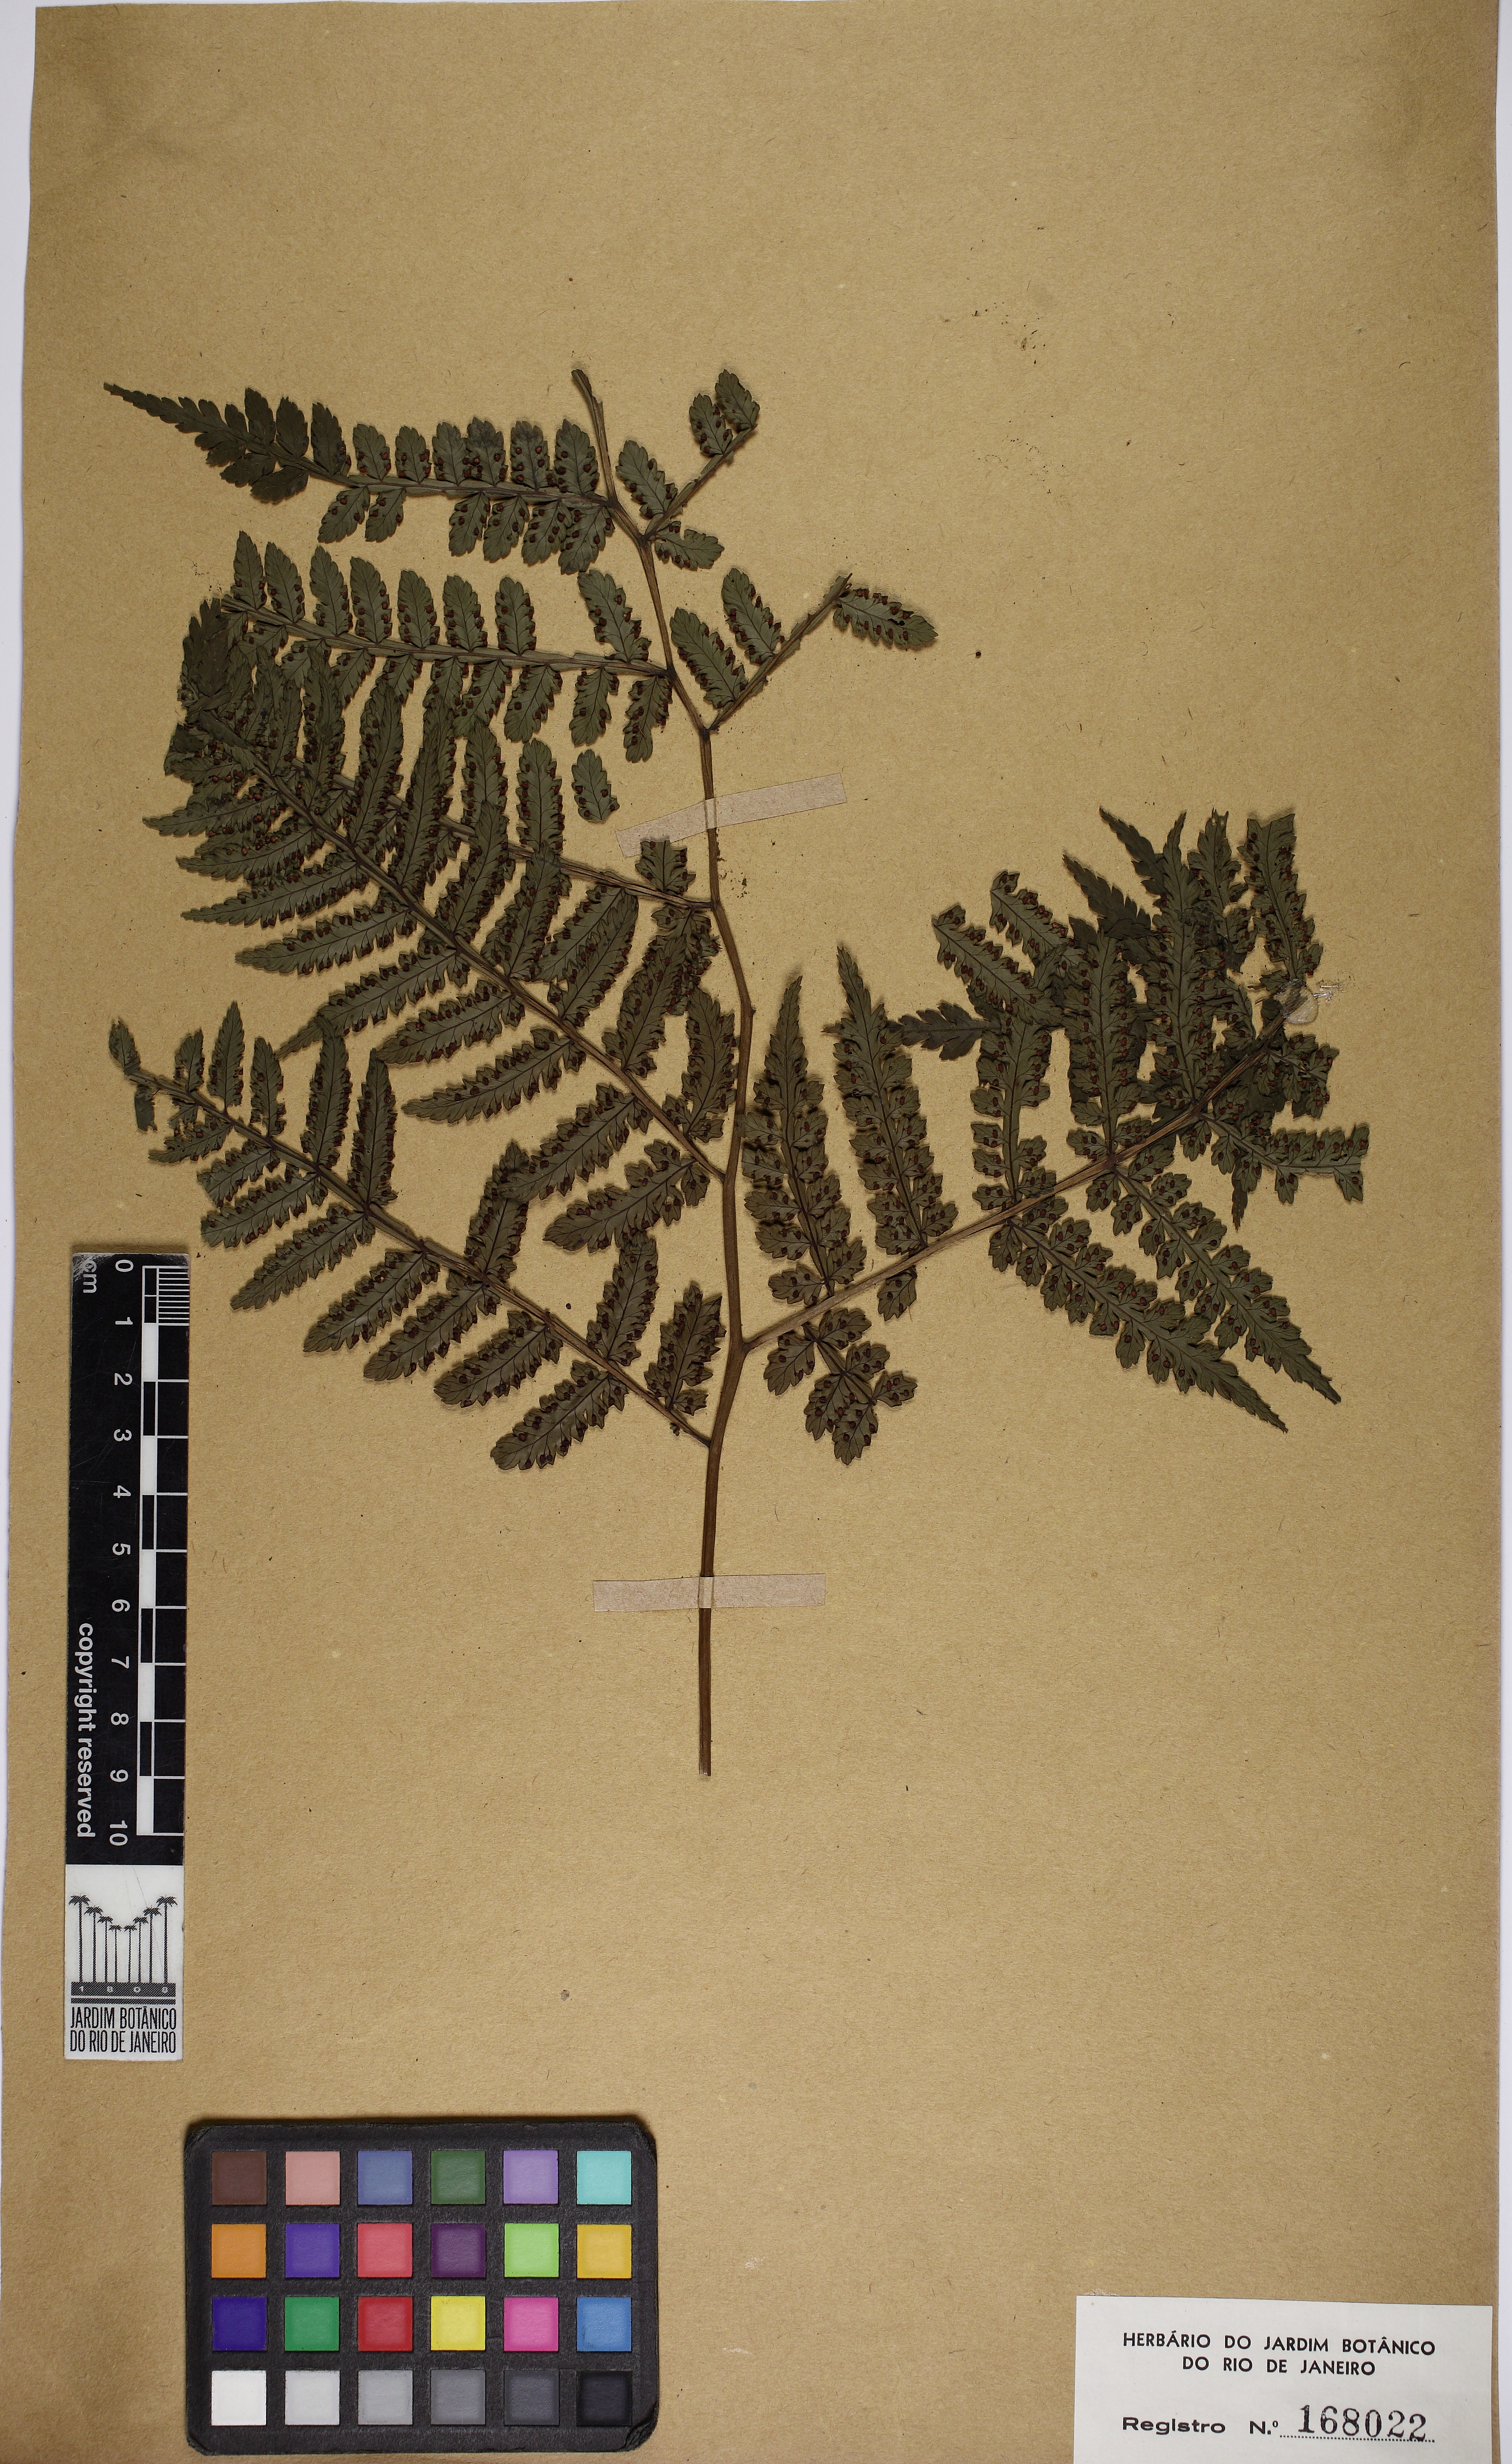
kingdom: Plantae
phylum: Tracheophyta
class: Polypodiopsida
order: Marattiales
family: Marattiaceae
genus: Eupodium
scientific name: Eupodium kaulfussii
